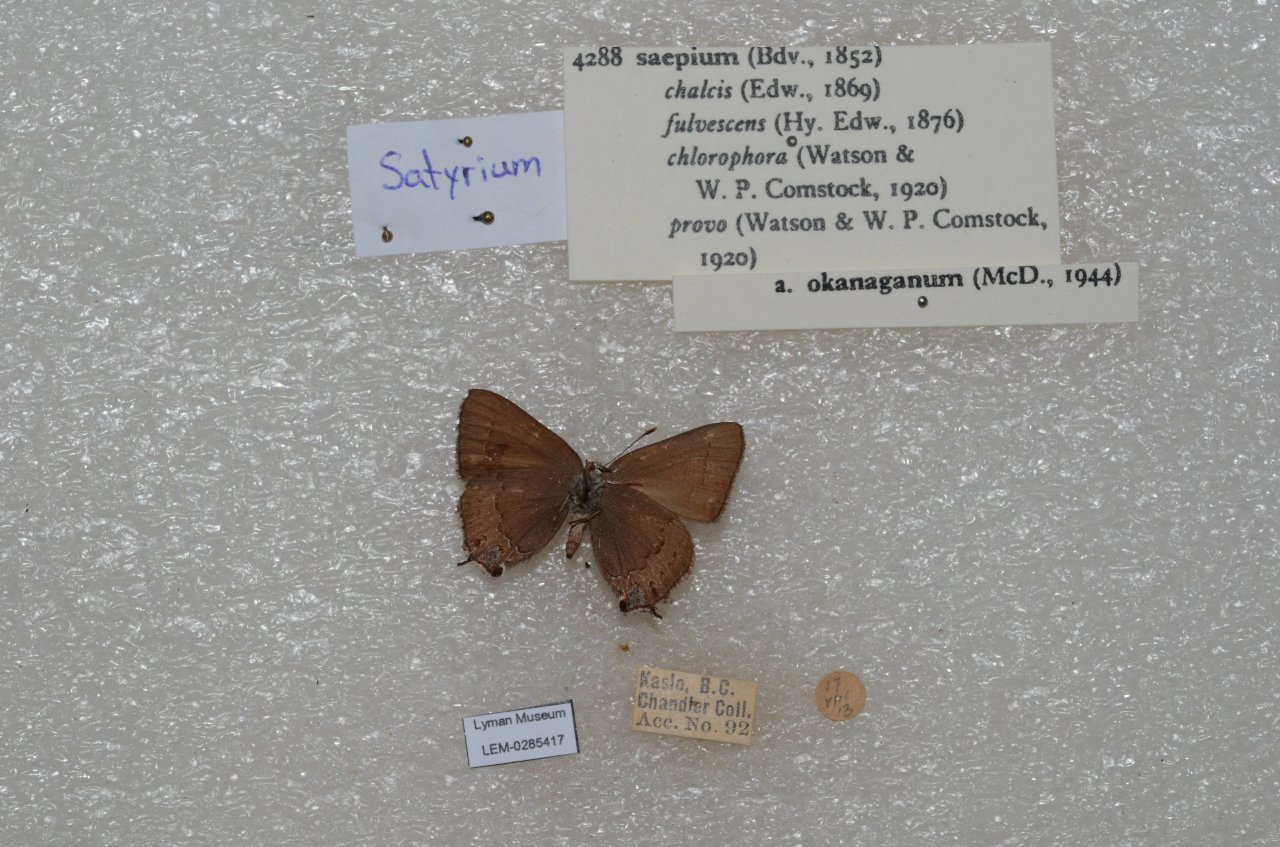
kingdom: Animalia
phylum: Arthropoda
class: Insecta
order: Lepidoptera
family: Lycaenidae
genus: Strymon
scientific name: Strymon saepium
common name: Hedgerow Hairstreak
